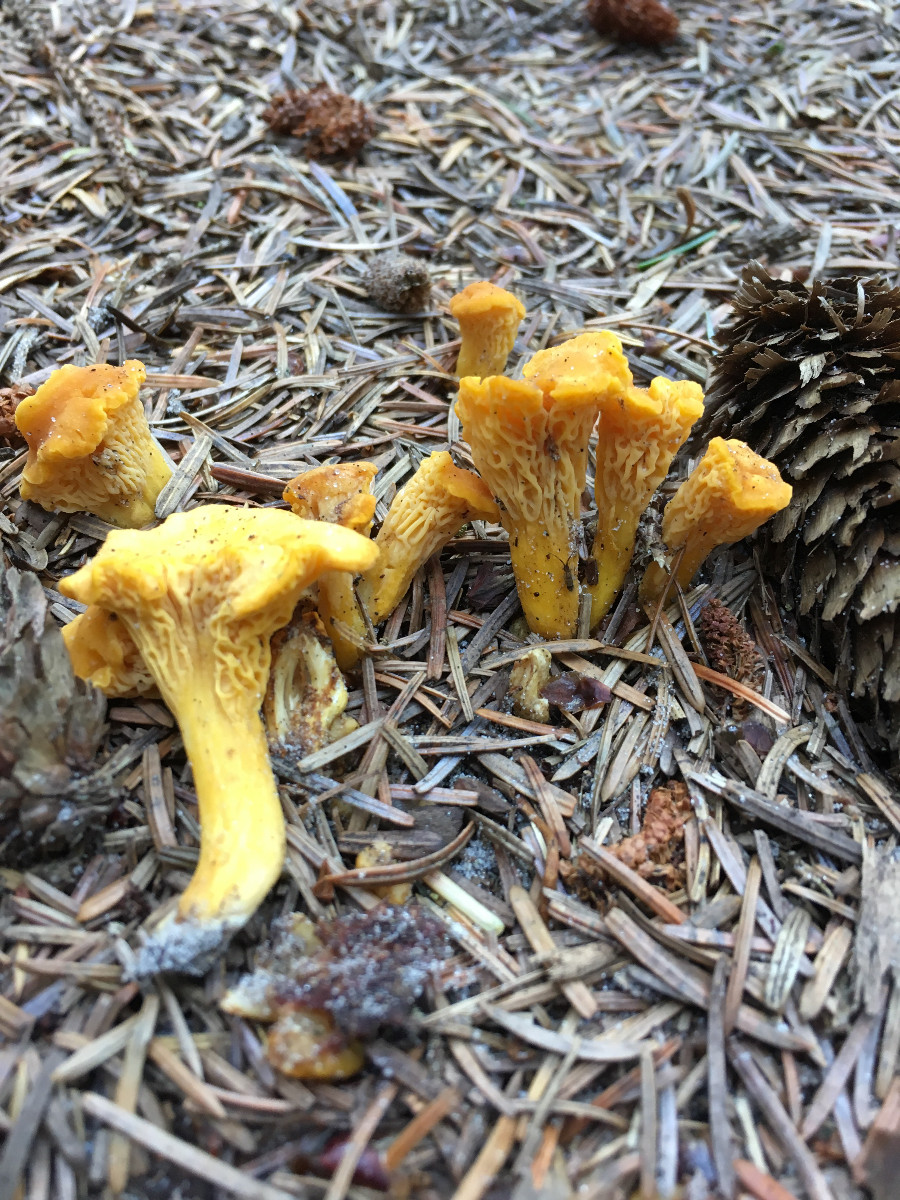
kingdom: Fungi
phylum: Basidiomycota
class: Agaricomycetes
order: Cantharellales
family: Hydnaceae
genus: Cantharellus
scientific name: Cantharellus cibarius
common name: almindelig kantarel
